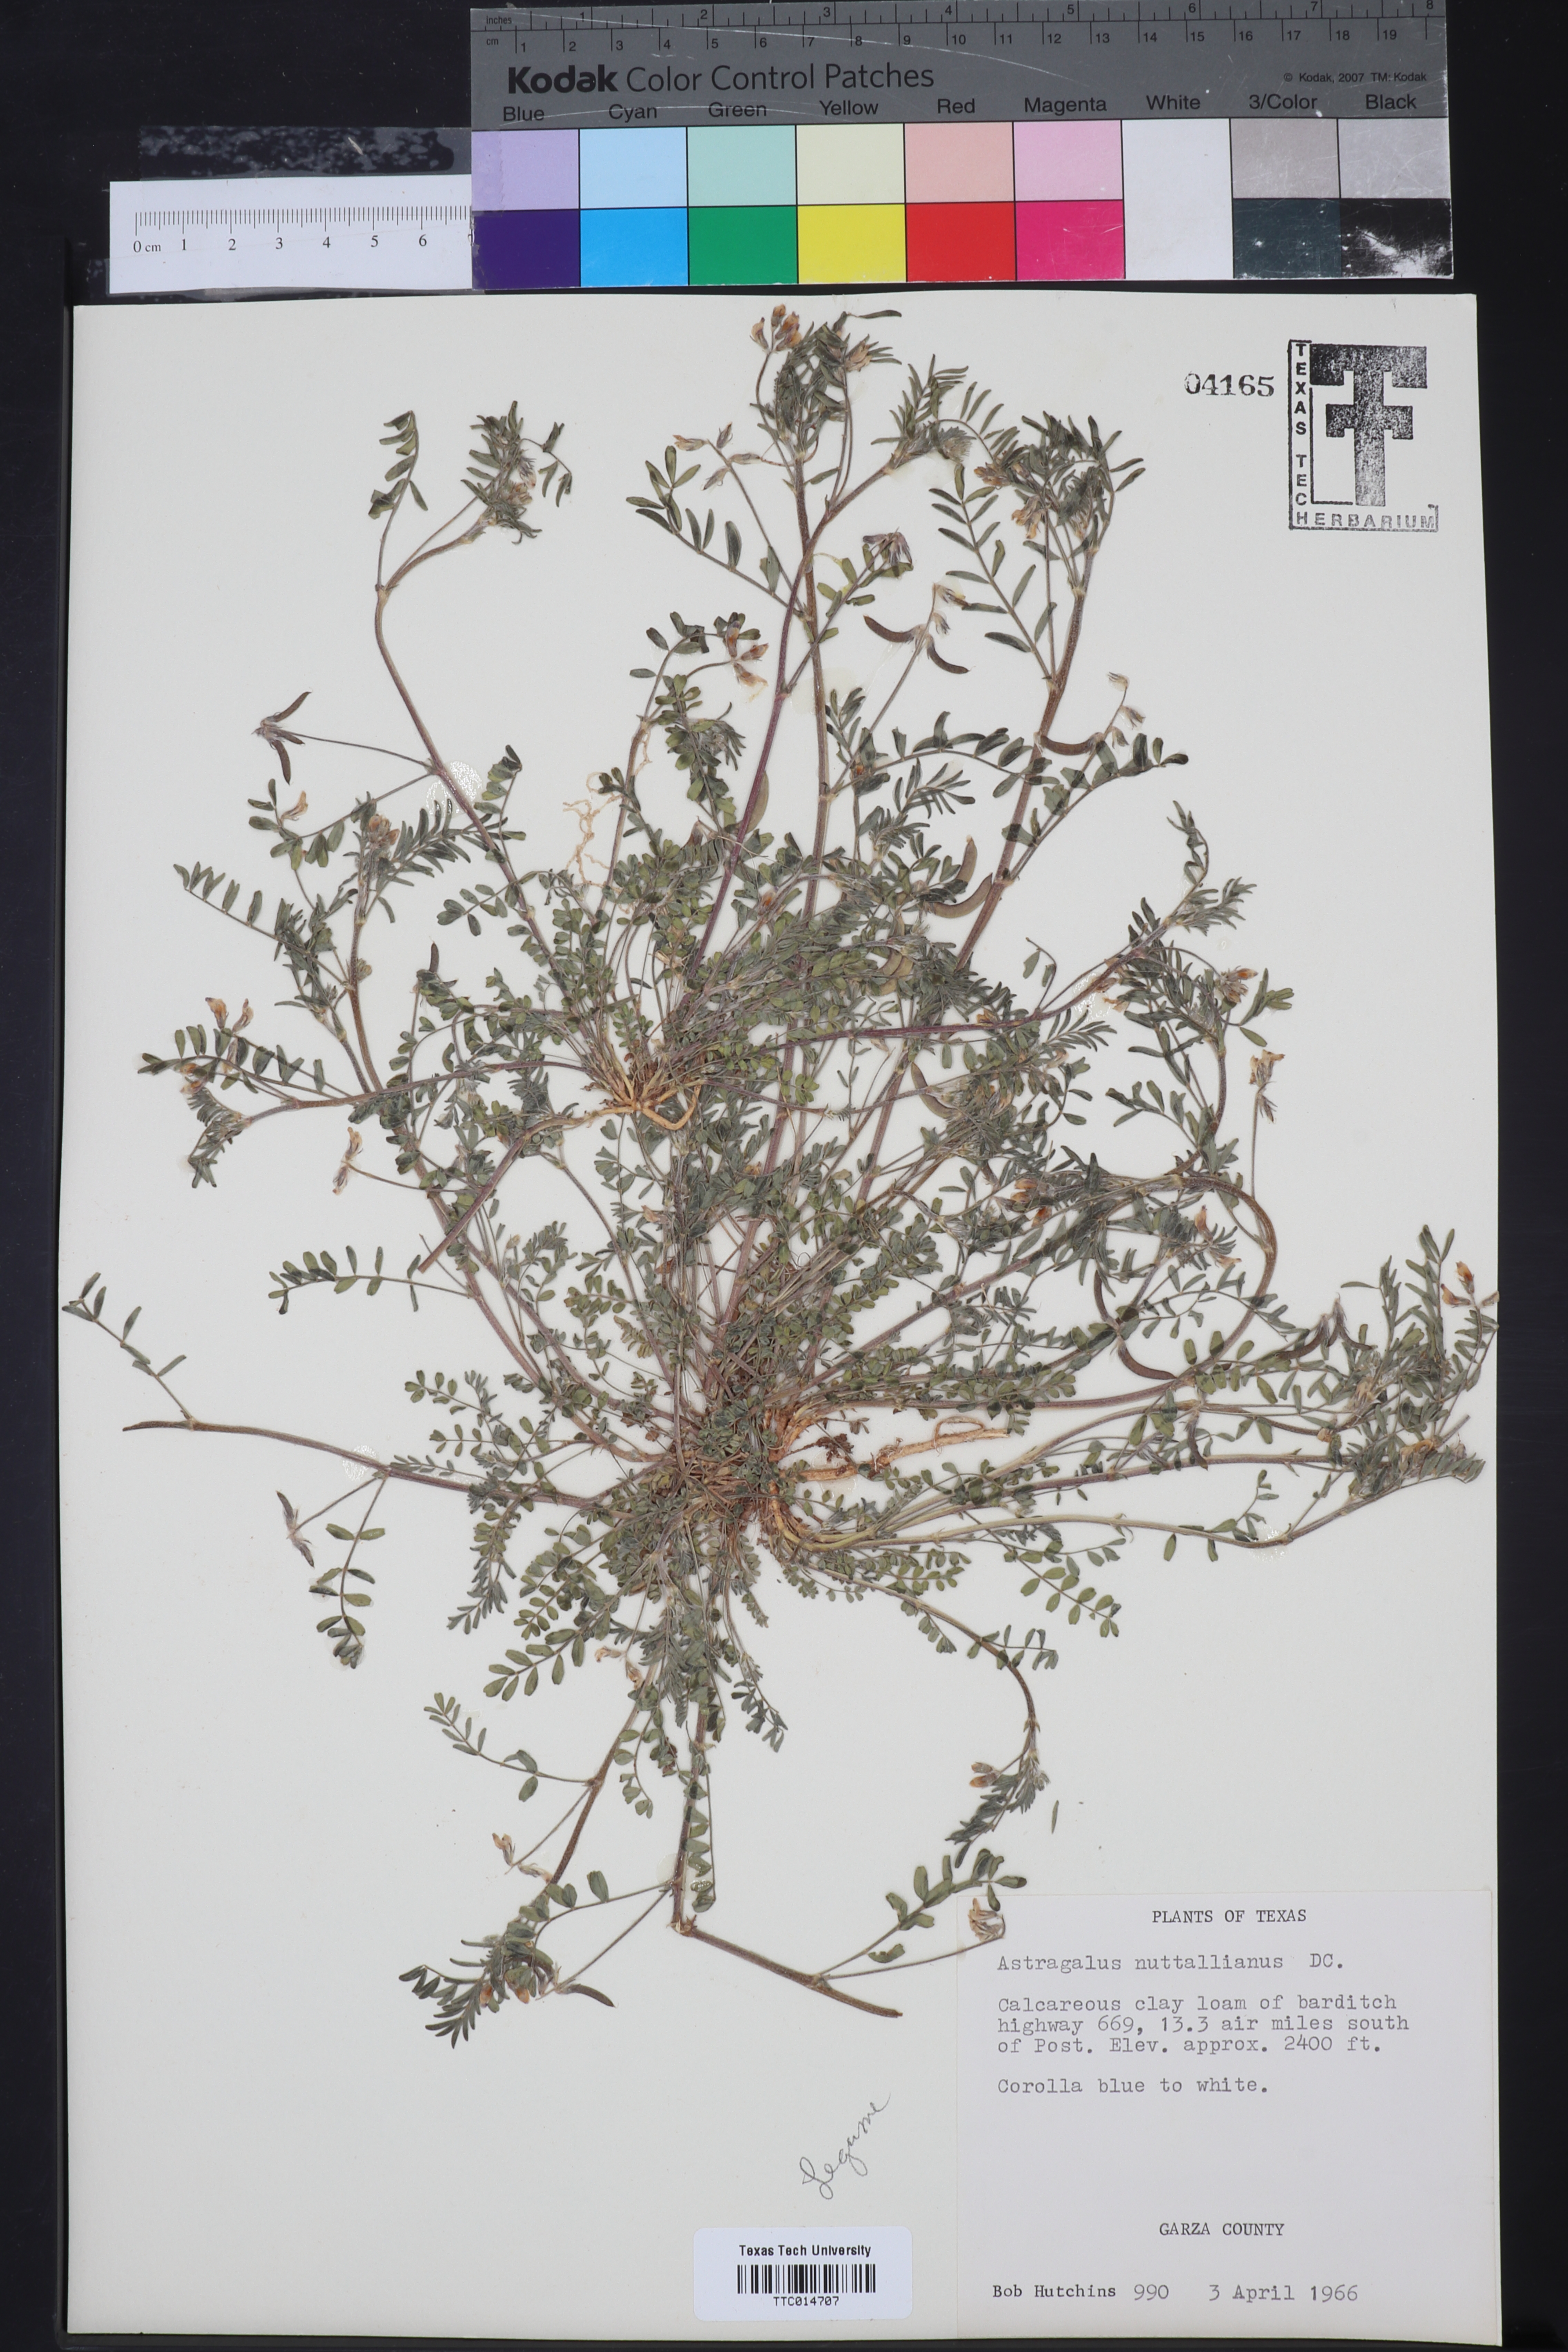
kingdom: Plantae
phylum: Tracheophyta
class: Magnoliopsida
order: Fabales
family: Fabaceae
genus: Astragalus
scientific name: Astragalus nuttallianus
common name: Smallflowered milkvetch
